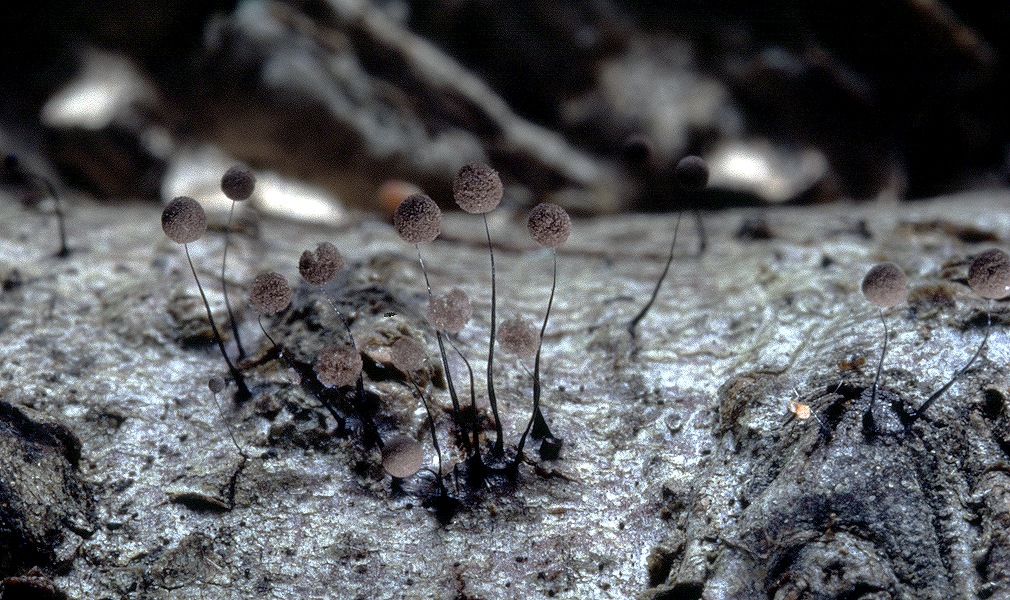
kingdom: Protozoa
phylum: Mycetozoa
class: Myxomycetes
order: Stemonitidales
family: Stemonitidaceae
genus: Comatricha
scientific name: Comatricha nigra
